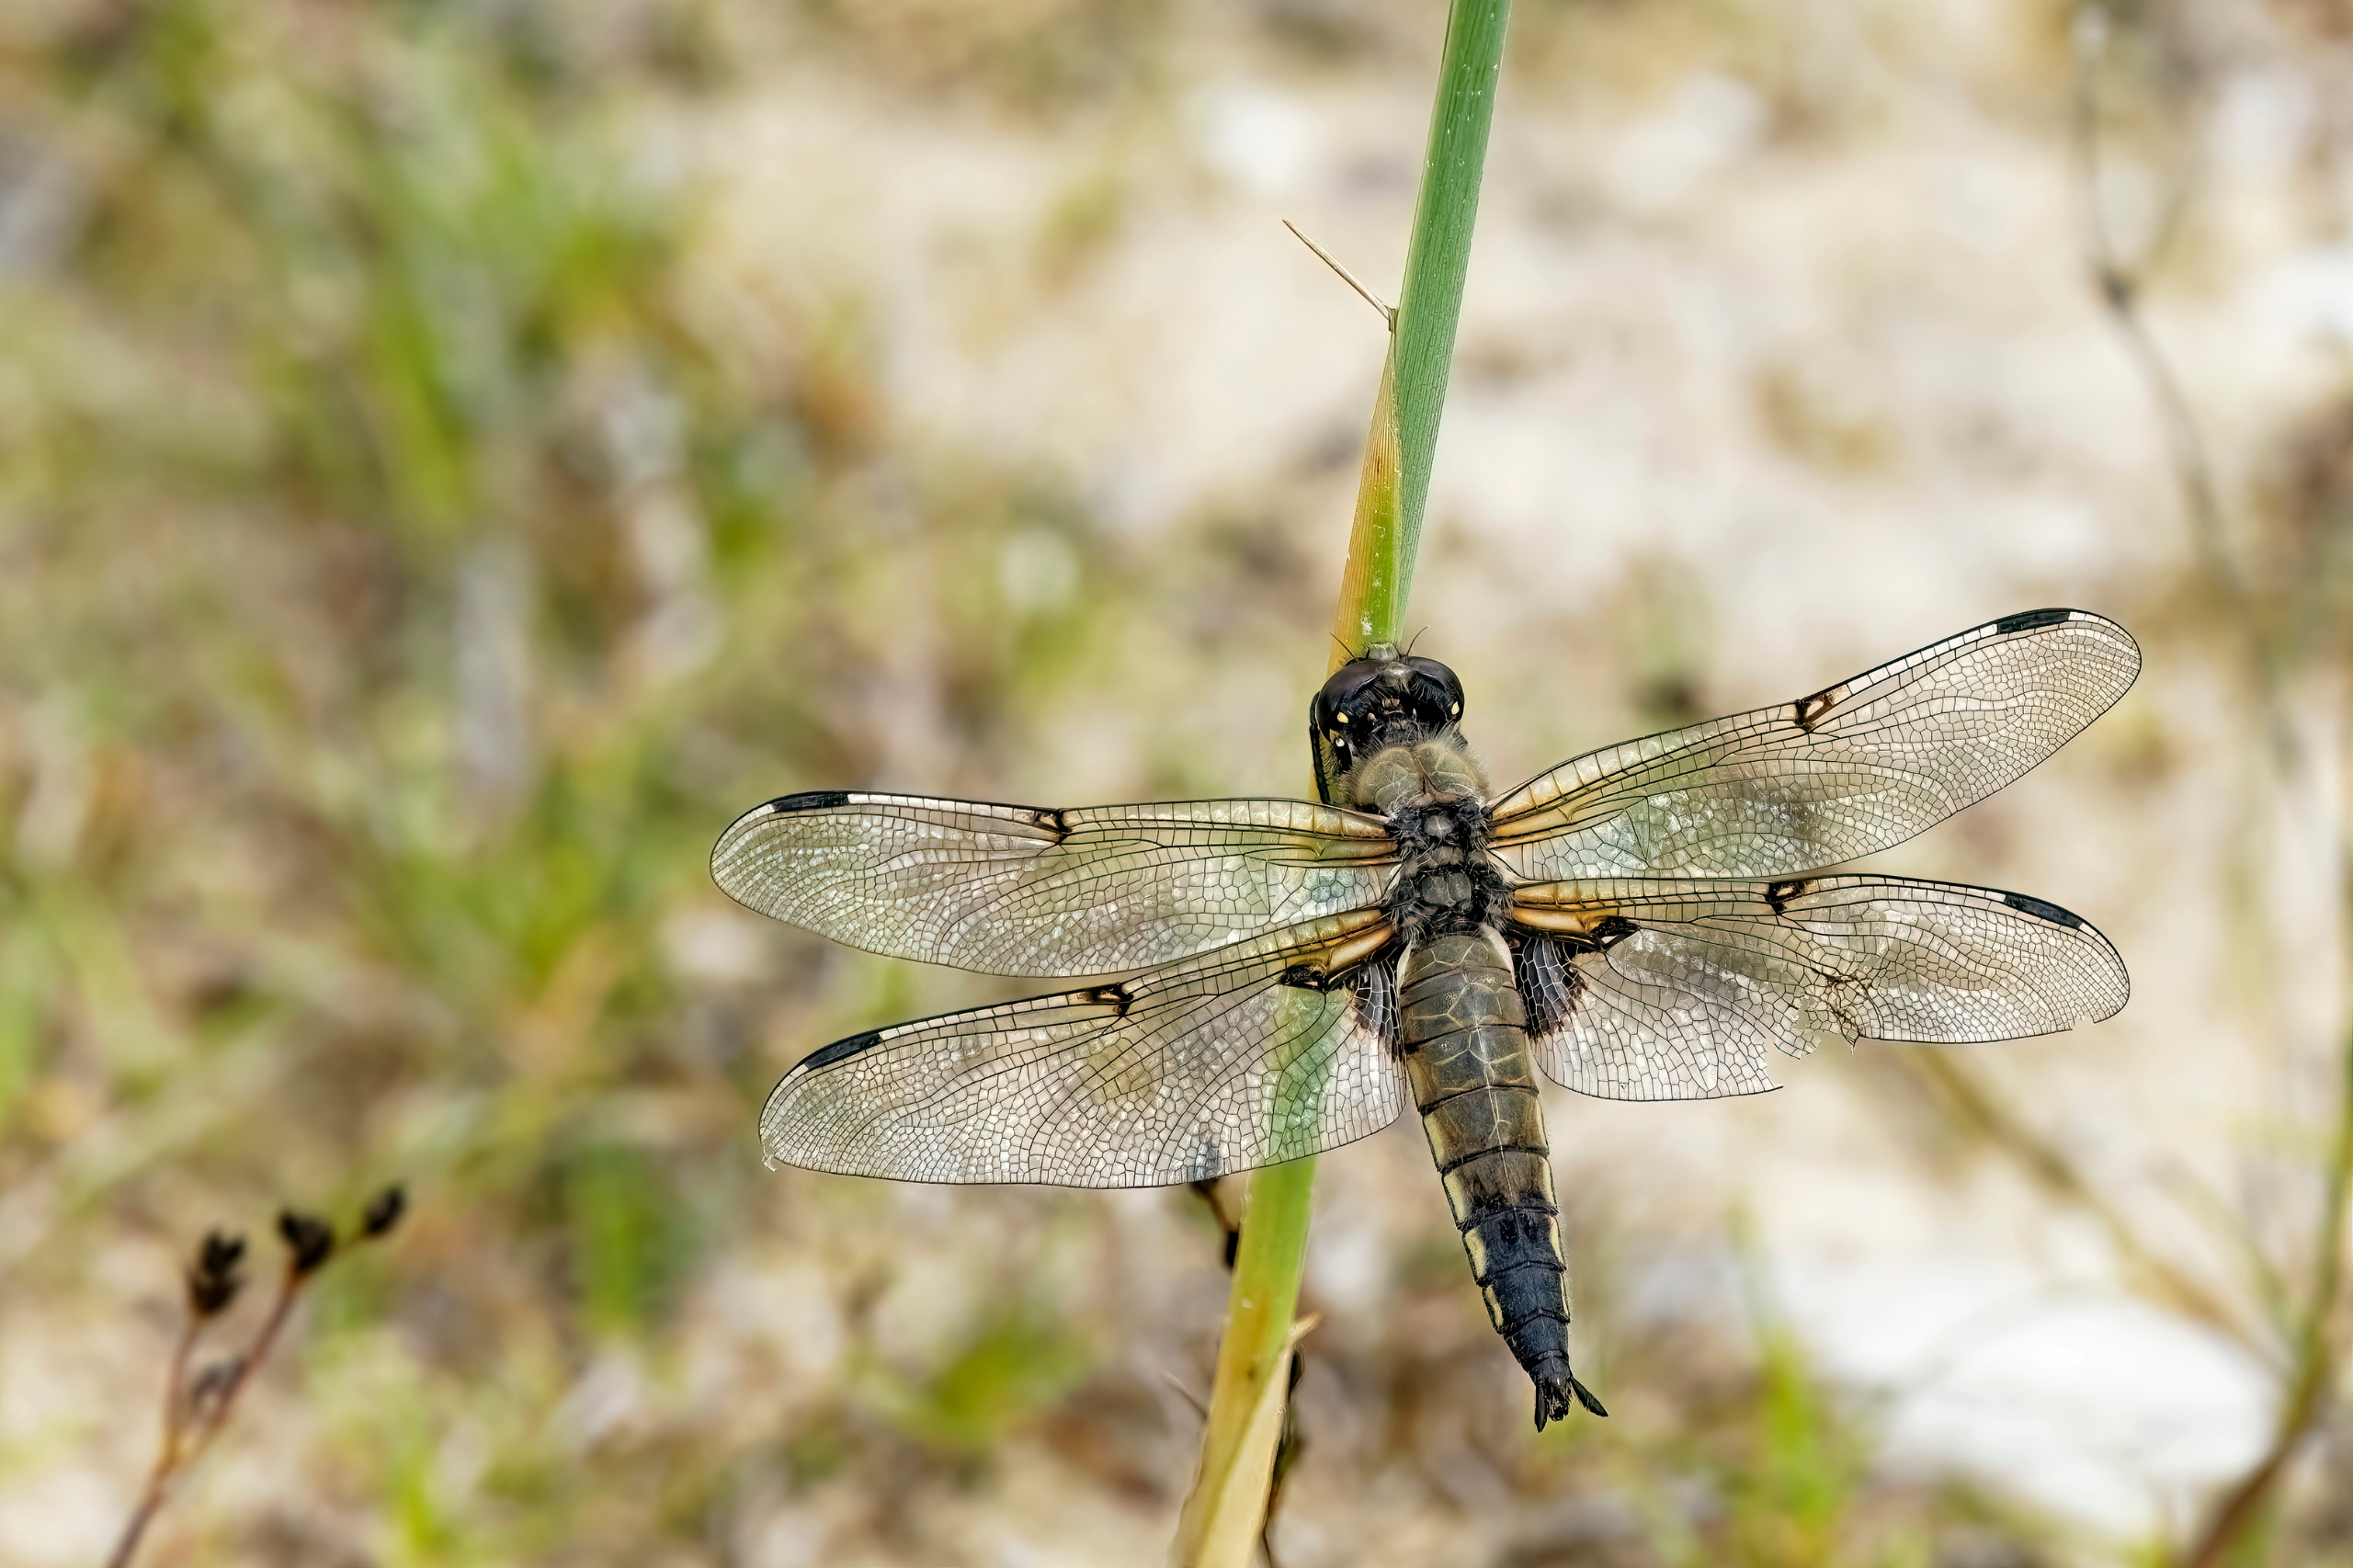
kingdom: Animalia
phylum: Arthropoda
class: Insecta
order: Odonata
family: Libellulidae
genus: Libellula
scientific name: Libellula quadrimaculata
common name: Fireplettet libel
